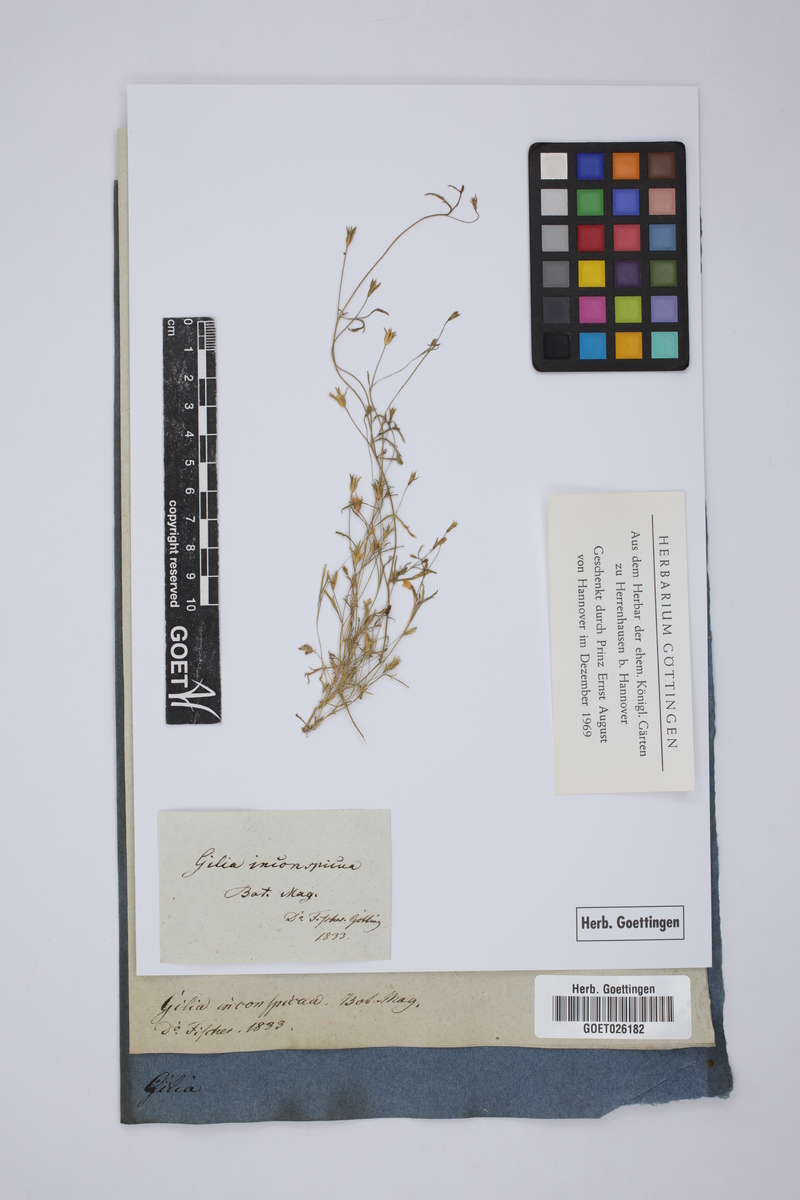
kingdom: Plantae
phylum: Tracheophyta
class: Magnoliopsida
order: Ericales
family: Polemoniaceae
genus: Gilia
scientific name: Gilia inconspicua
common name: Shy gilia
